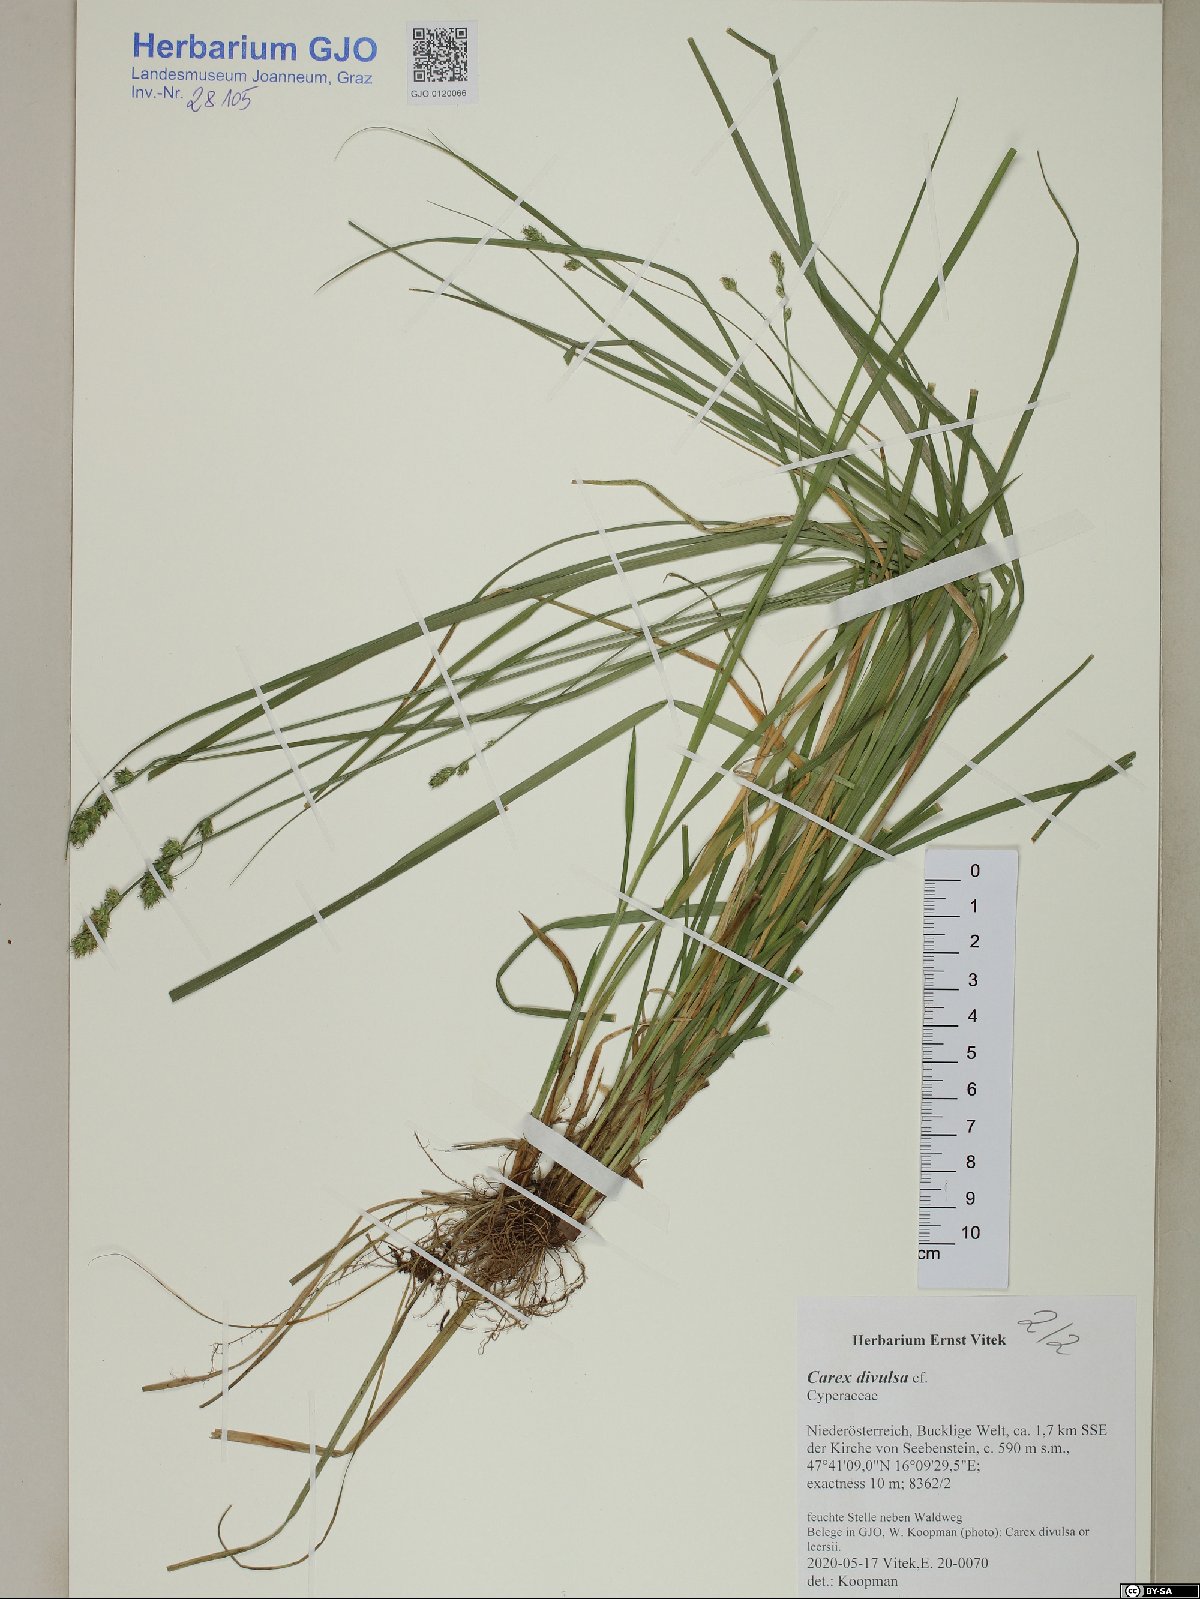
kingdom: Plantae
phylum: Tracheophyta
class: Liliopsida
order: Poales
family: Cyperaceae
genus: Carex
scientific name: Carex divulsa
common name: Grassland sedge
